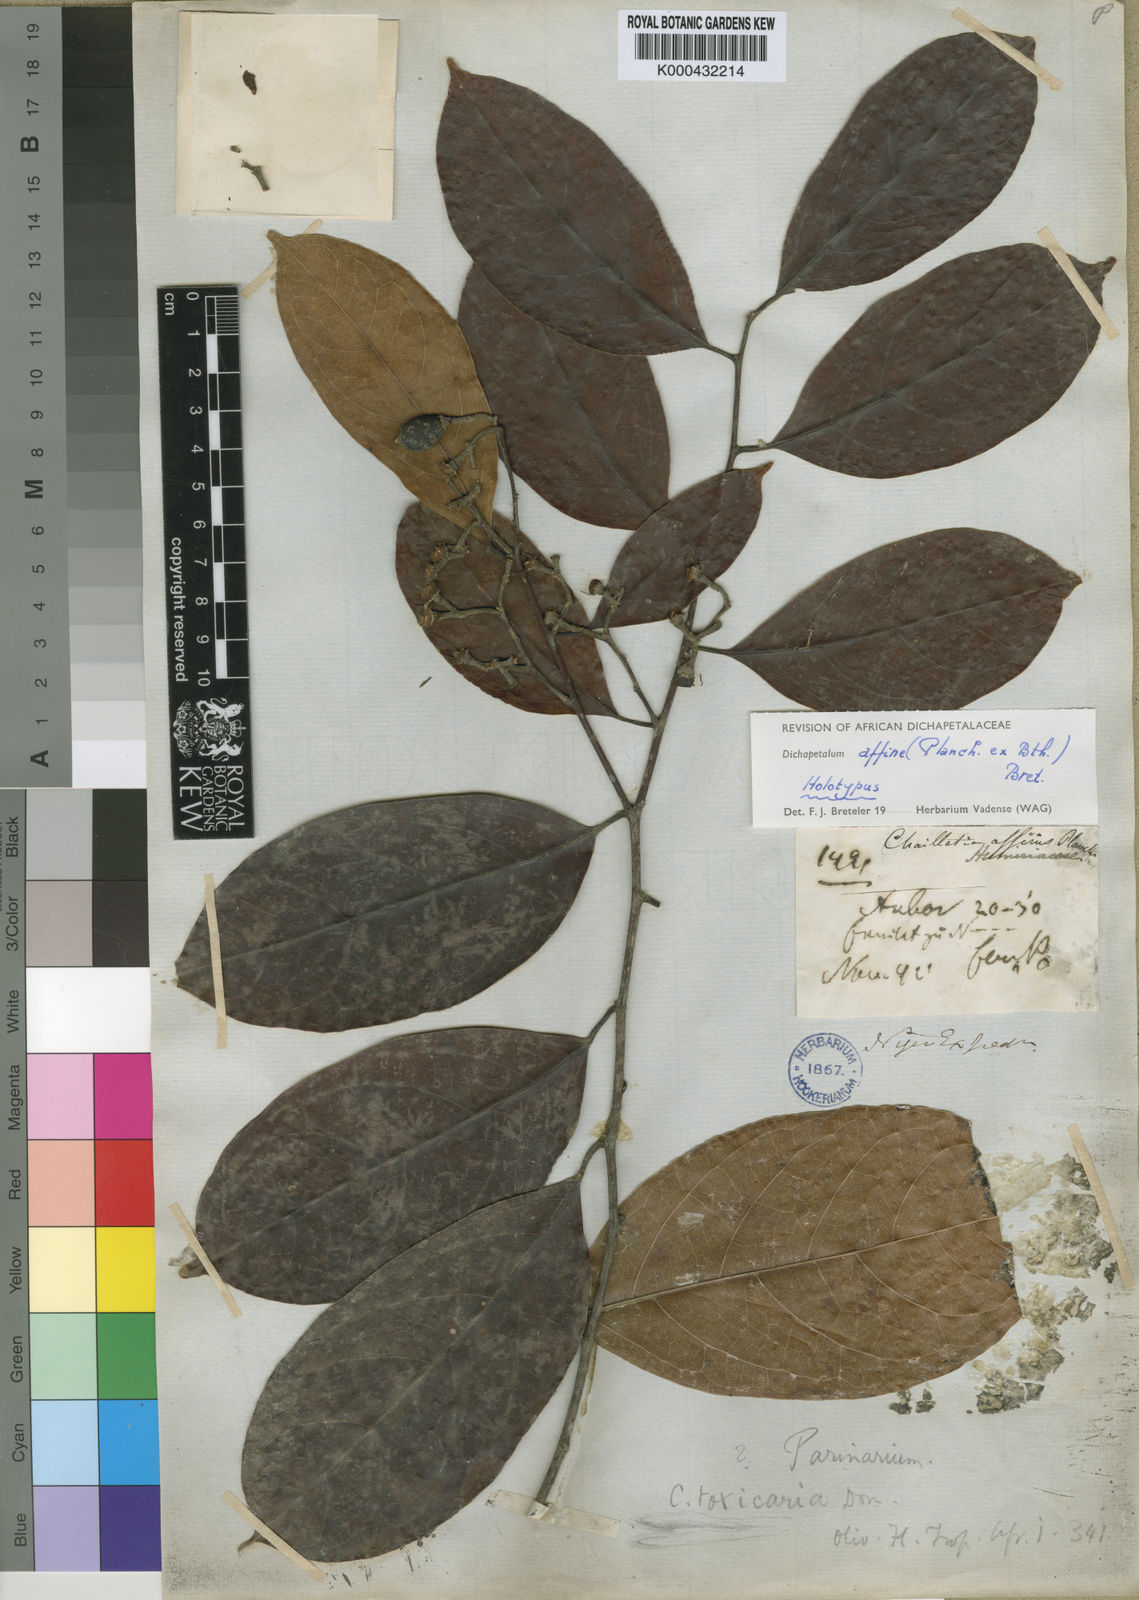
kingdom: Plantae
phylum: Tracheophyta
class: Magnoliopsida
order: Malpighiales
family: Dichapetalaceae
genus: Dichapetalum
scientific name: Dichapetalum affine
